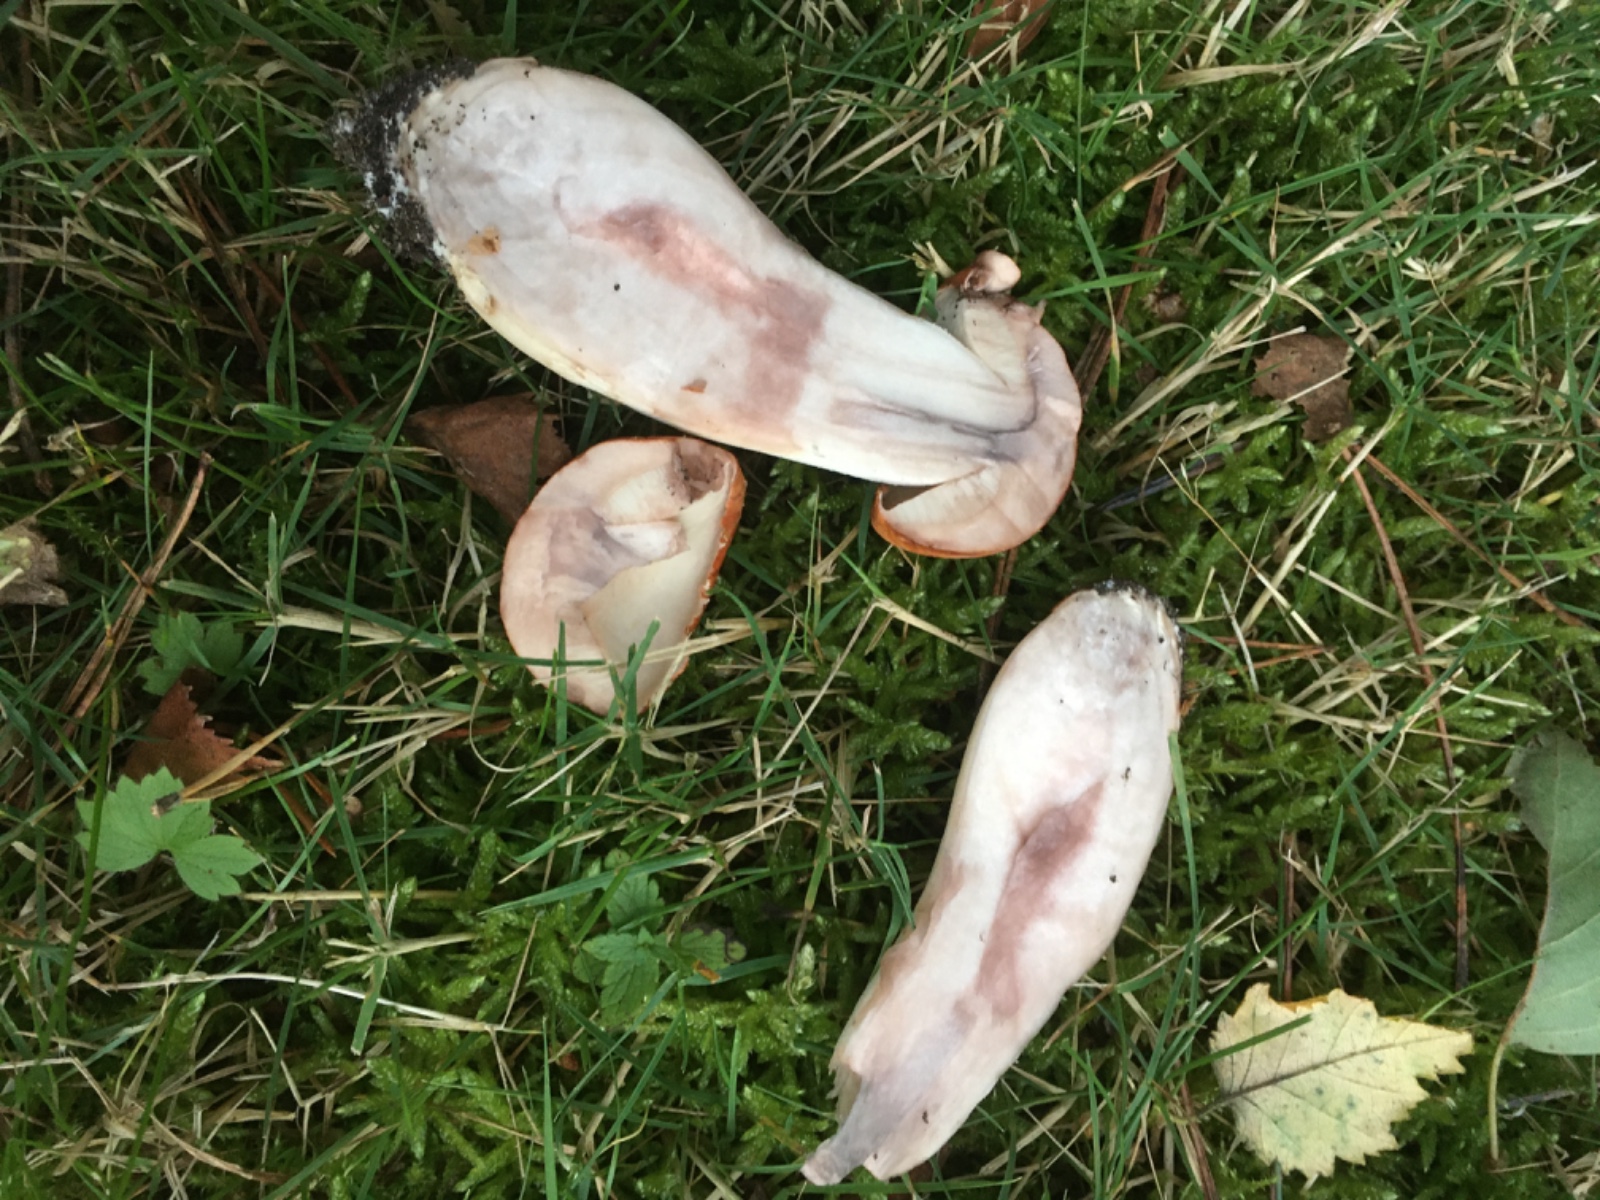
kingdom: Fungi
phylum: Basidiomycota
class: Agaricomycetes
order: Boletales
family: Boletaceae
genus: Leccinum
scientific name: Leccinum albostipitatum
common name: aspe-skælrørhat
